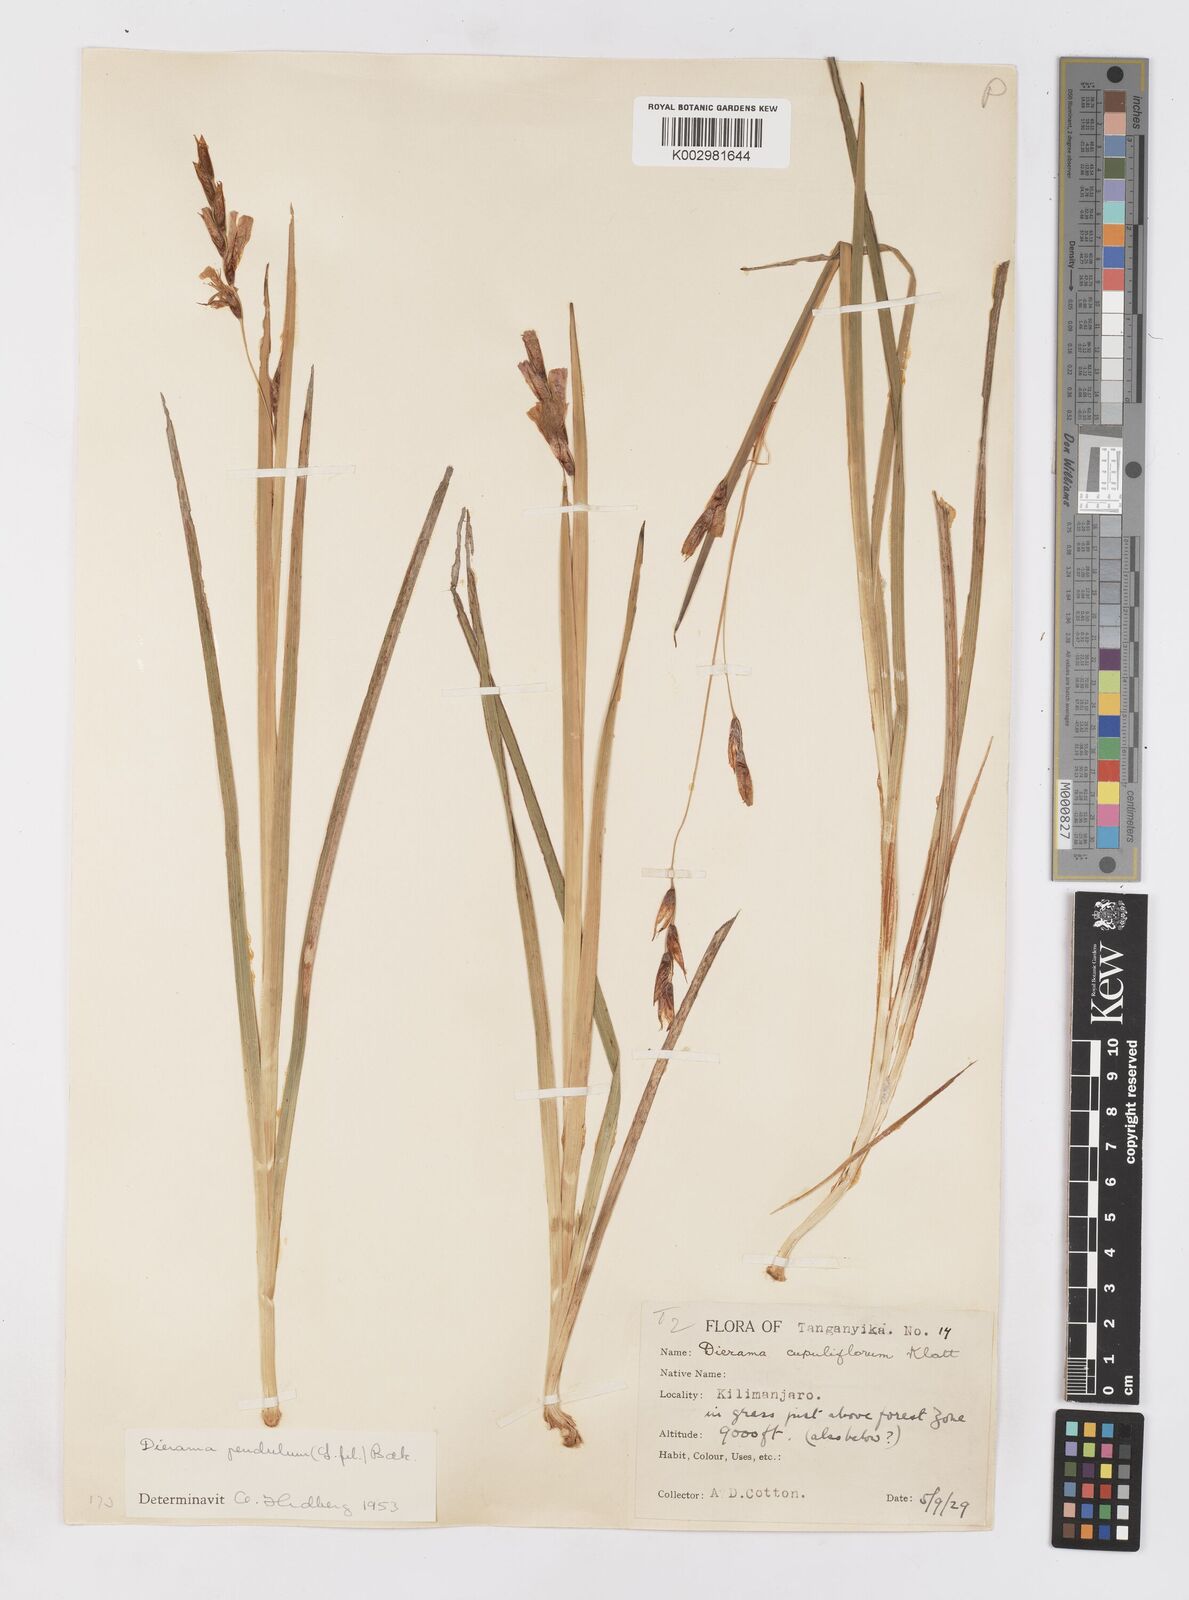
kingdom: Plantae
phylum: Tracheophyta
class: Liliopsida
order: Asparagales
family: Iridaceae
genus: Dierama
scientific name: Dierama cupuliflorum
